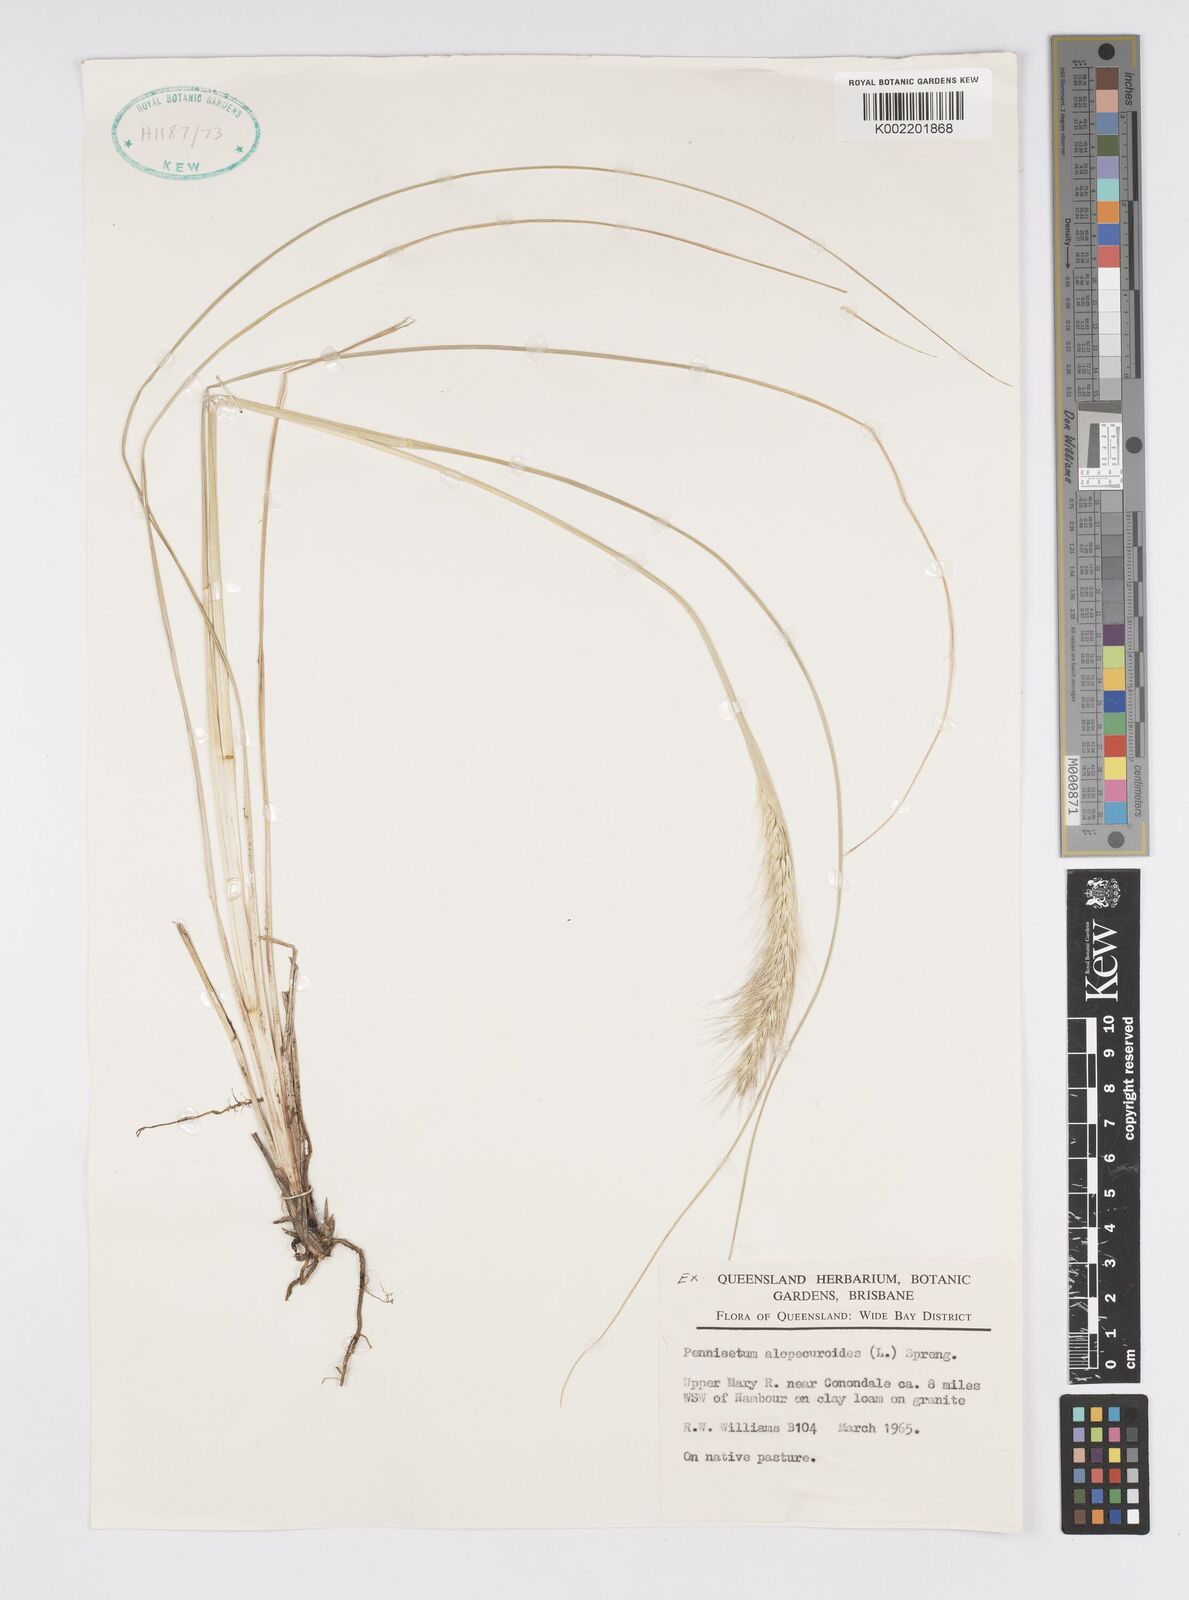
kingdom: Plantae
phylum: Tracheophyta
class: Liliopsida
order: Poales
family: Poaceae
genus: Cenchrus
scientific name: Cenchrus alopecuroides
